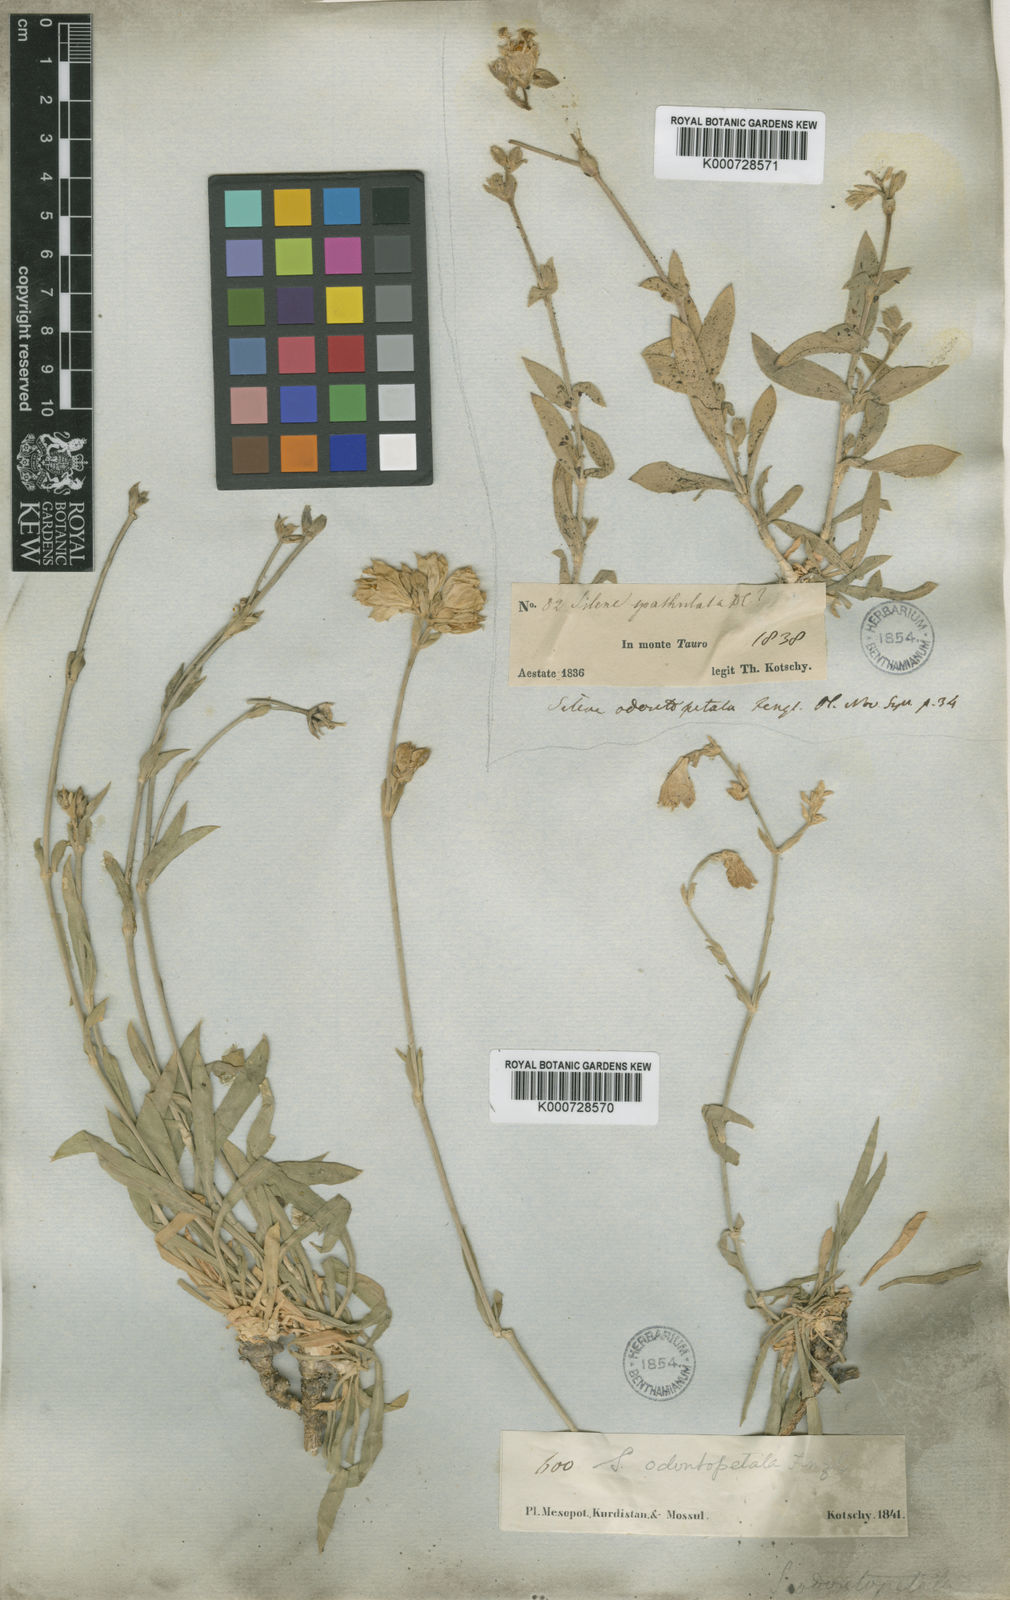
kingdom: Plantae
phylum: Tracheophyta
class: Magnoliopsida
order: Caryophyllales
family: Caryophyllaceae
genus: Silene
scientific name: Silene odontopetala
